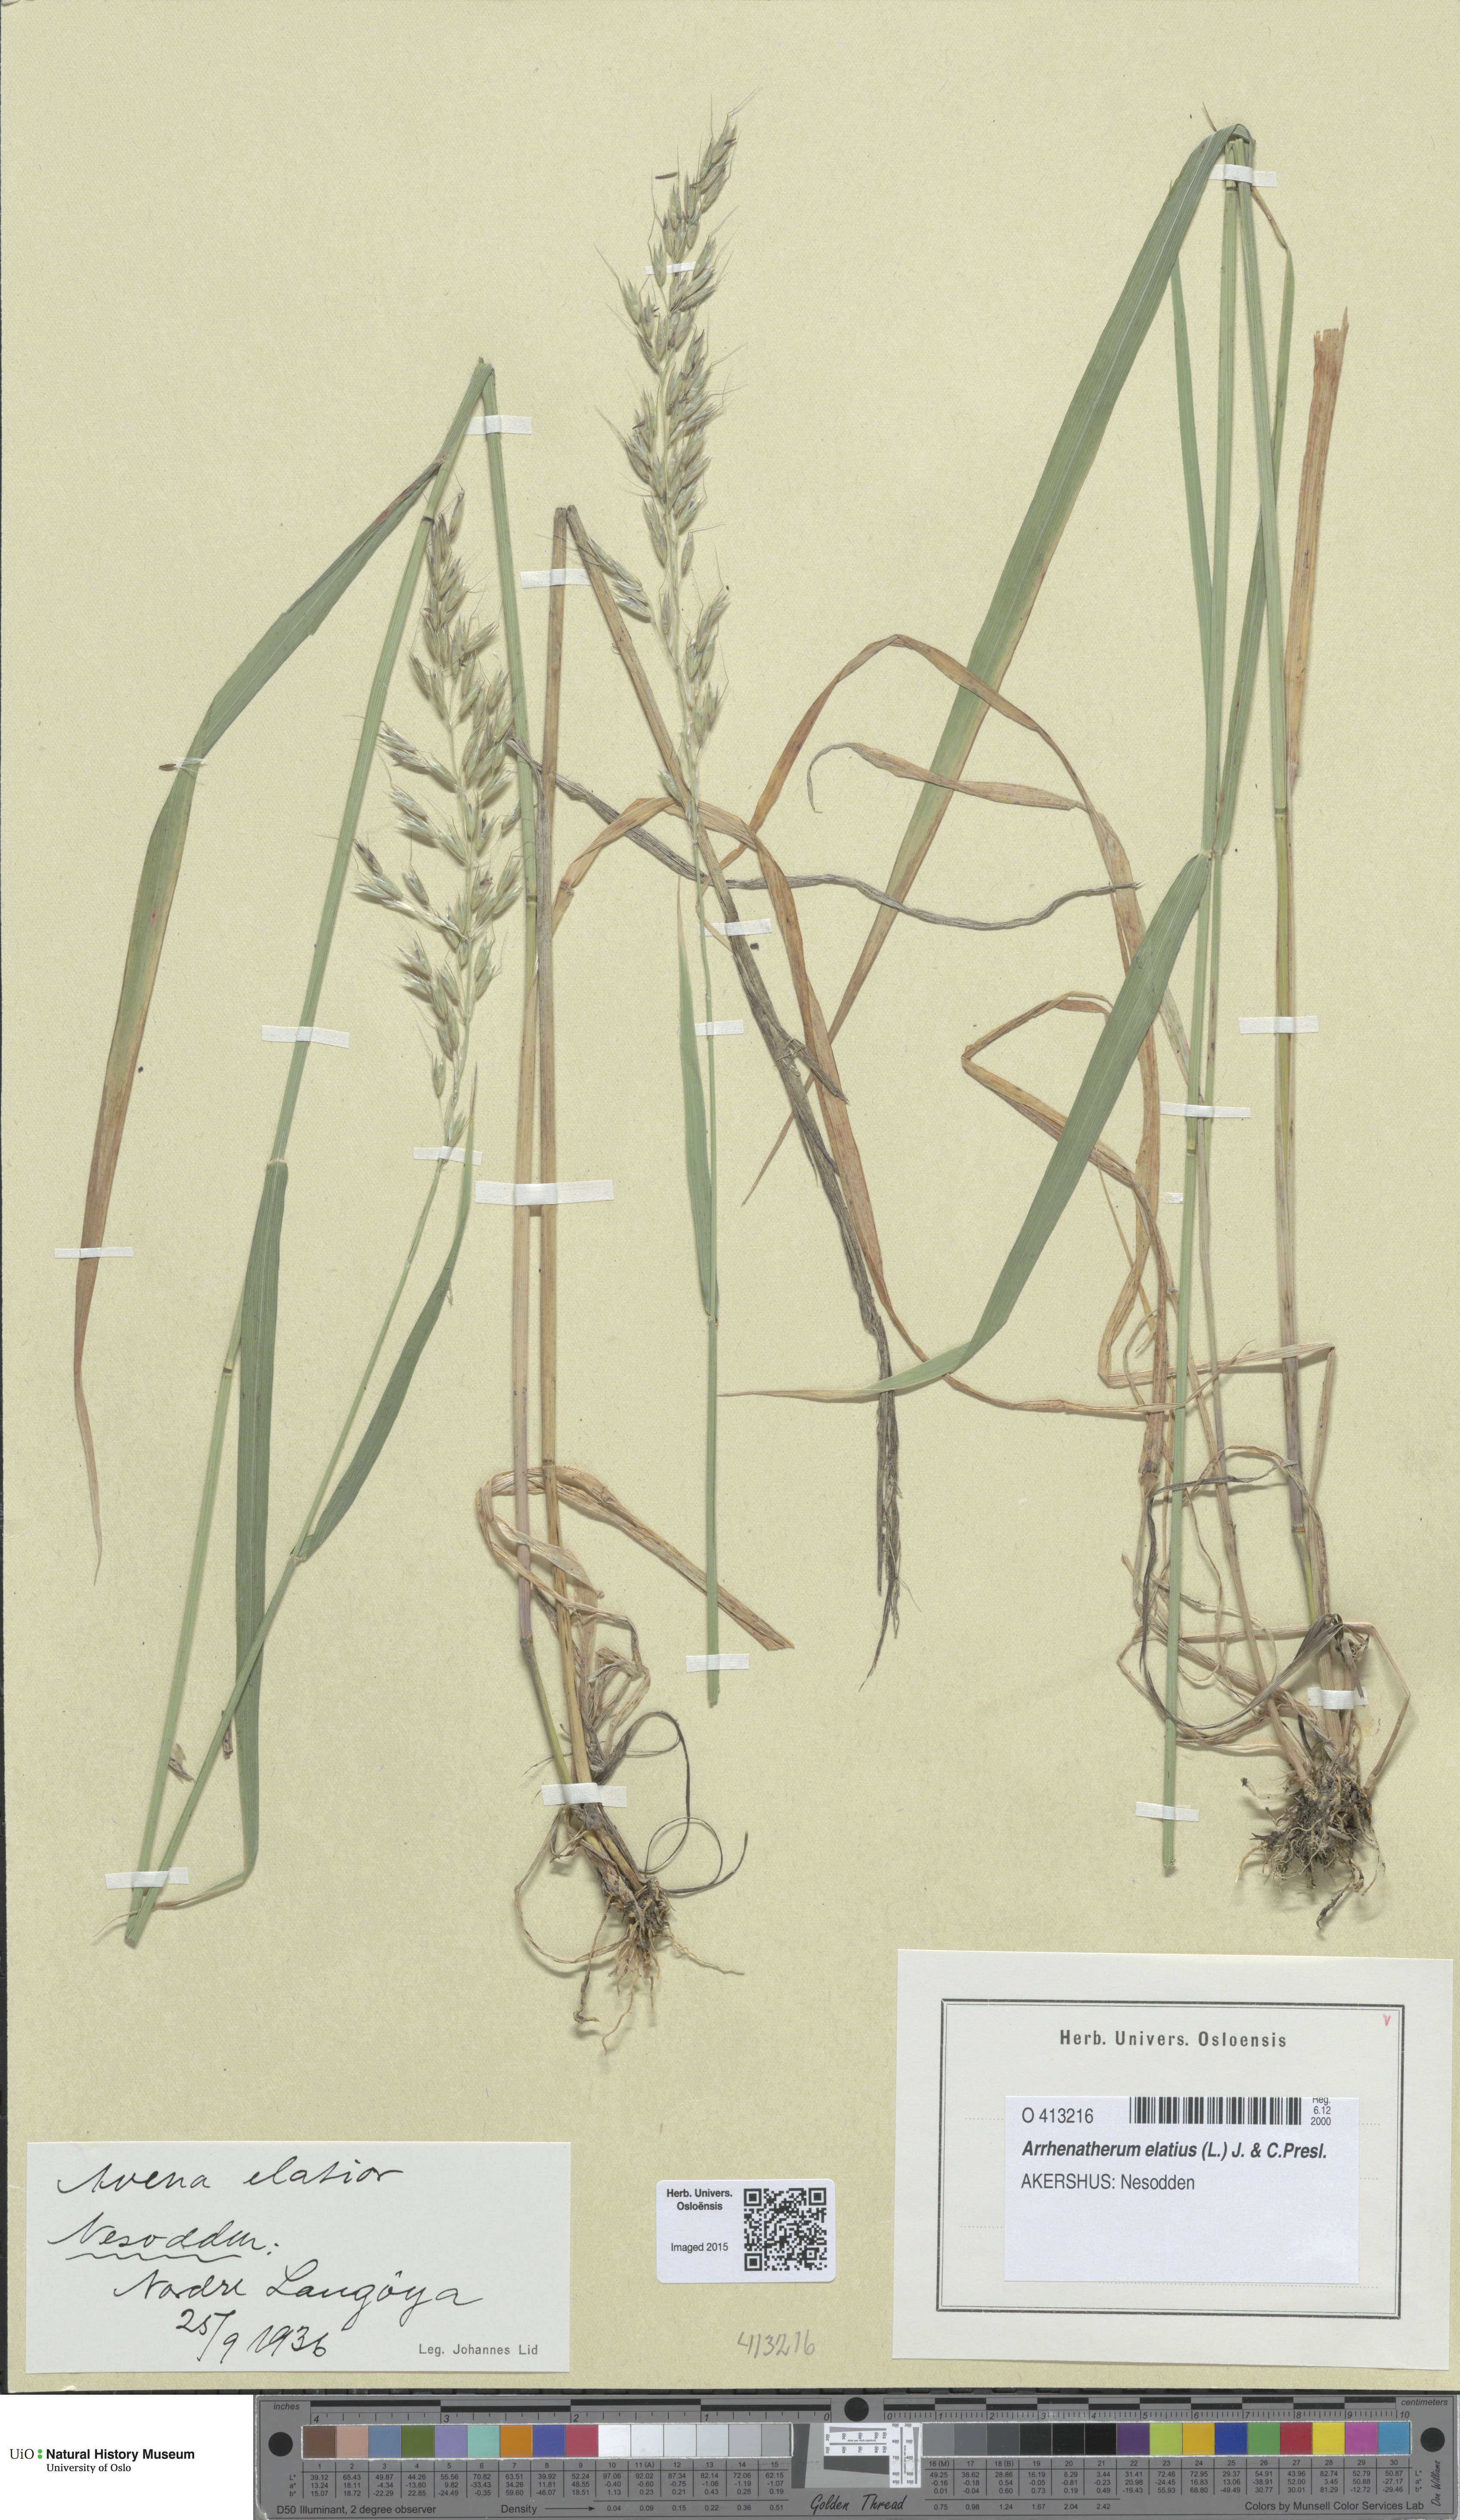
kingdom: Plantae
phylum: Tracheophyta
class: Liliopsida
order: Poales
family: Poaceae
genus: Arrhenatherum
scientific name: Arrhenatherum elatius
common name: Tall oatgrass
